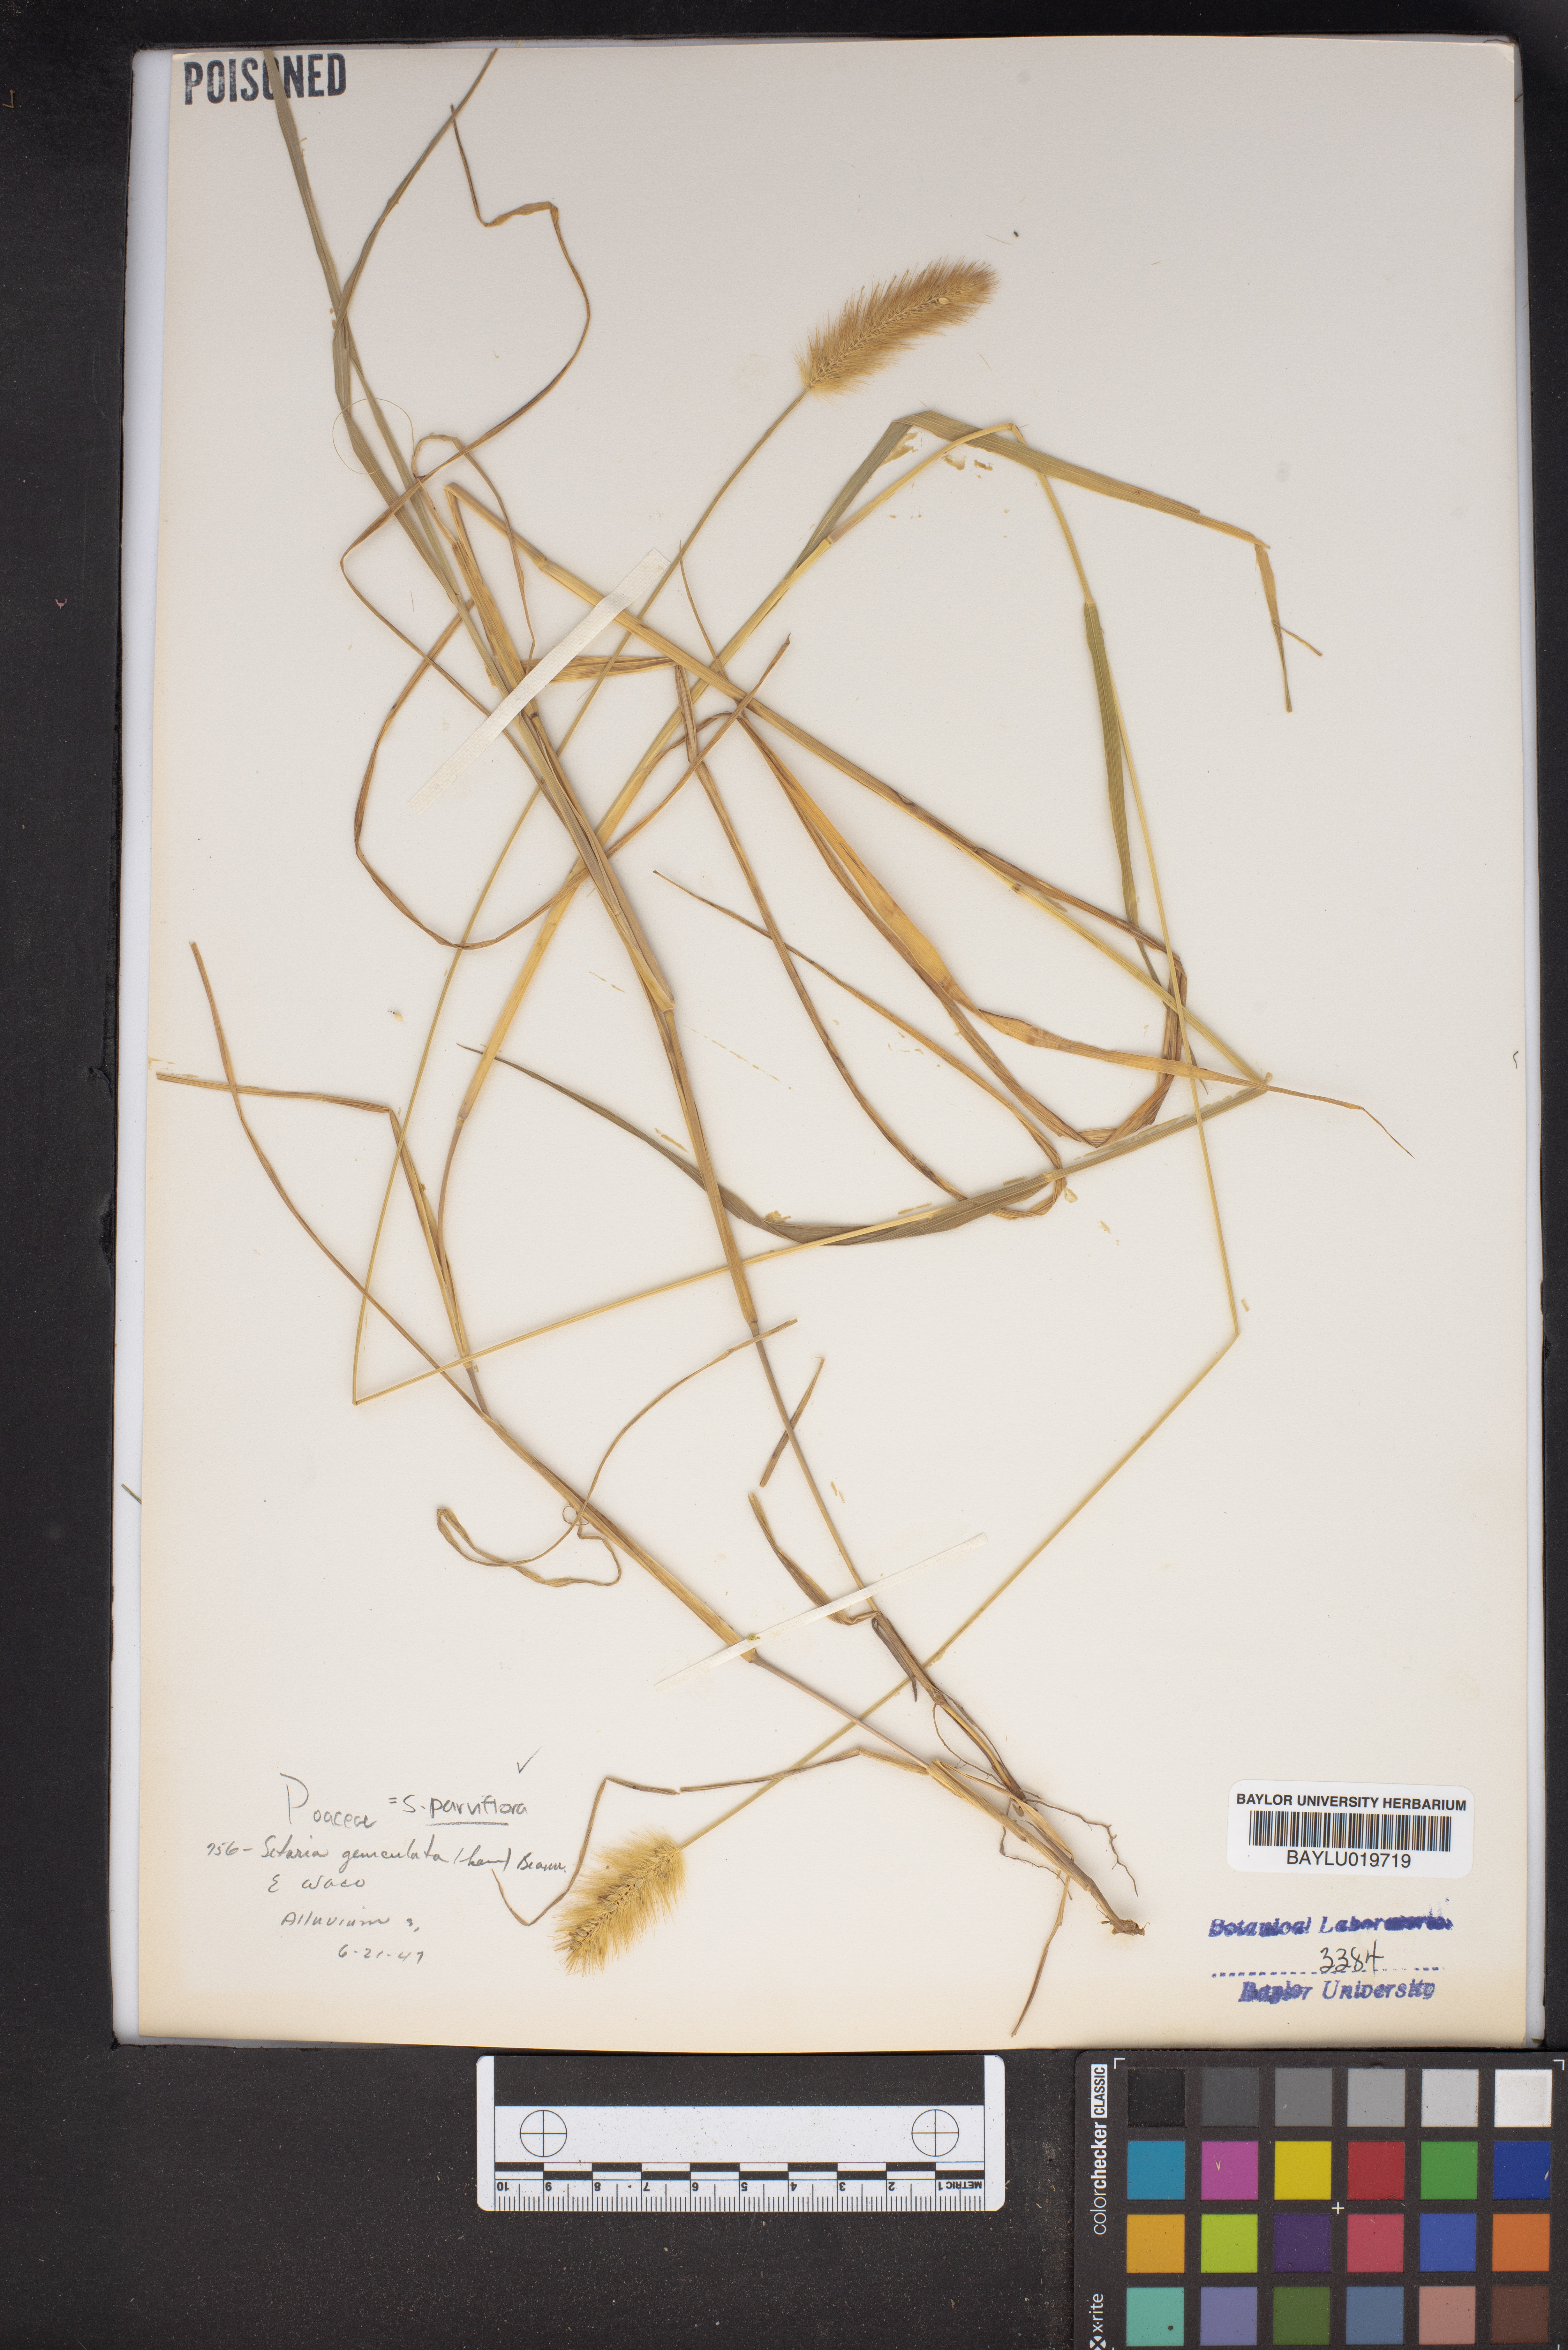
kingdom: Plantae
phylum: Tracheophyta
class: Liliopsida
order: Poales
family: Poaceae
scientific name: Poaceae
